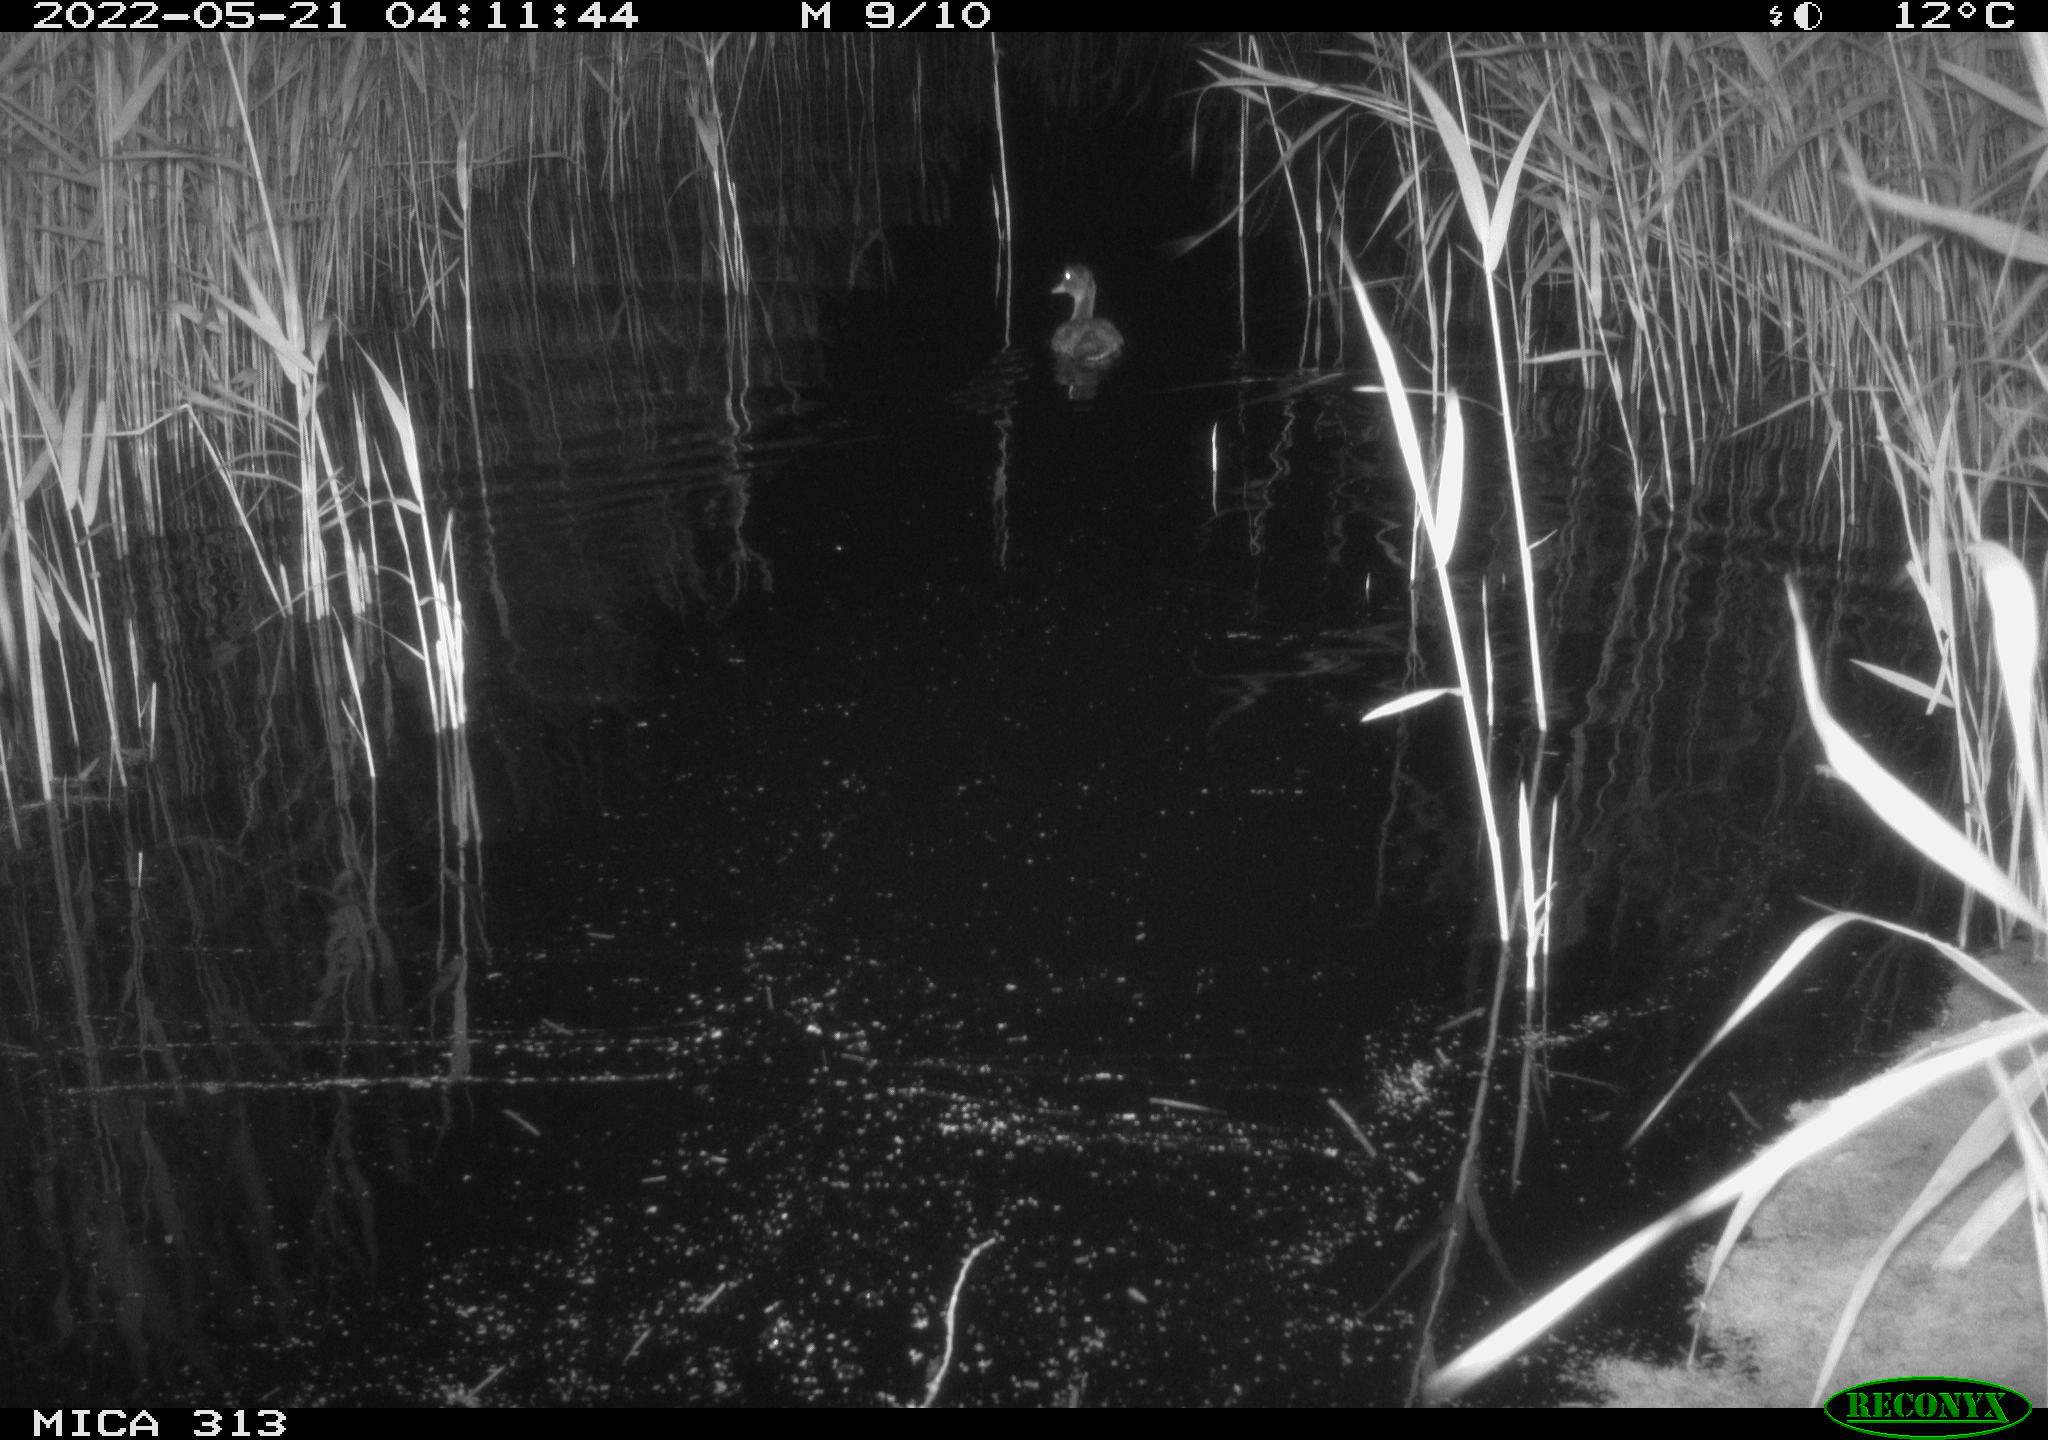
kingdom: Animalia
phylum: Chordata
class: Aves
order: Anseriformes
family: Anatidae
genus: Anas
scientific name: Anas platyrhynchos
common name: Mallard
